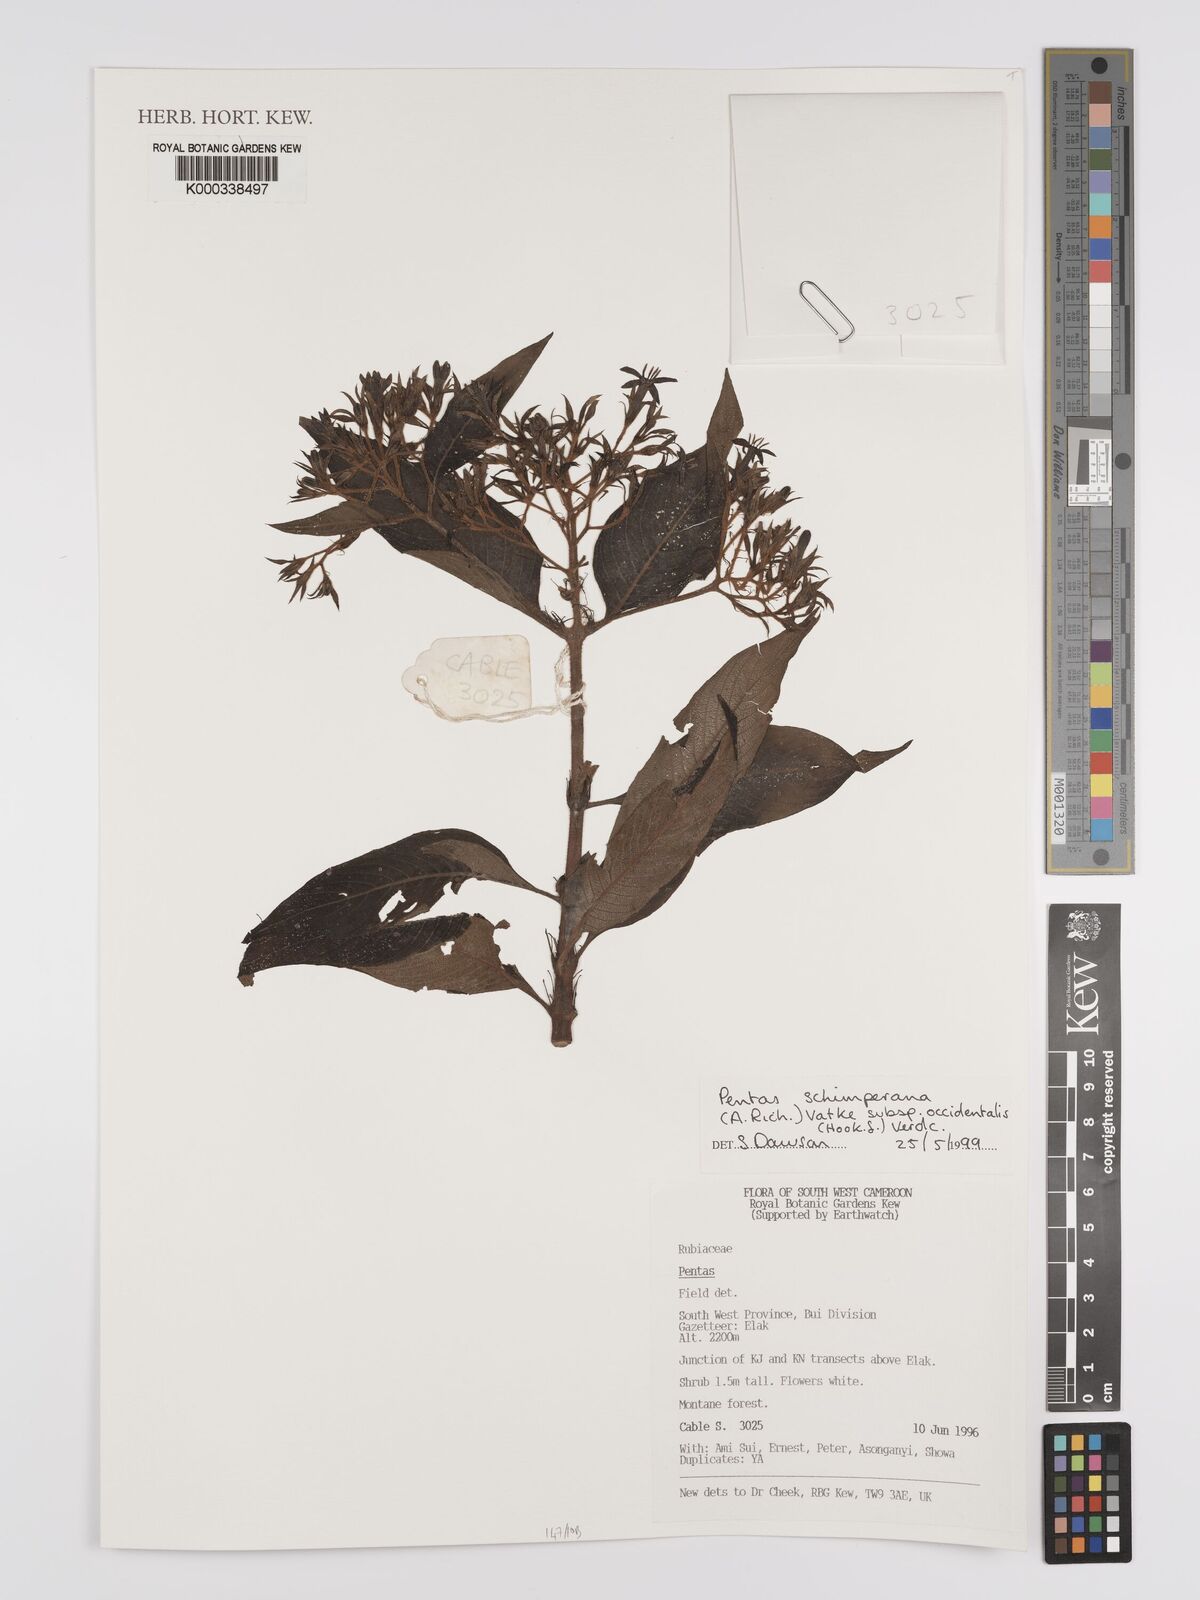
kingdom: Plantae
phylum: Tracheophyta
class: Magnoliopsida
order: Gentianales
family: Rubiaceae
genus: Phyllopentas
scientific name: Phyllopentas schimperi
